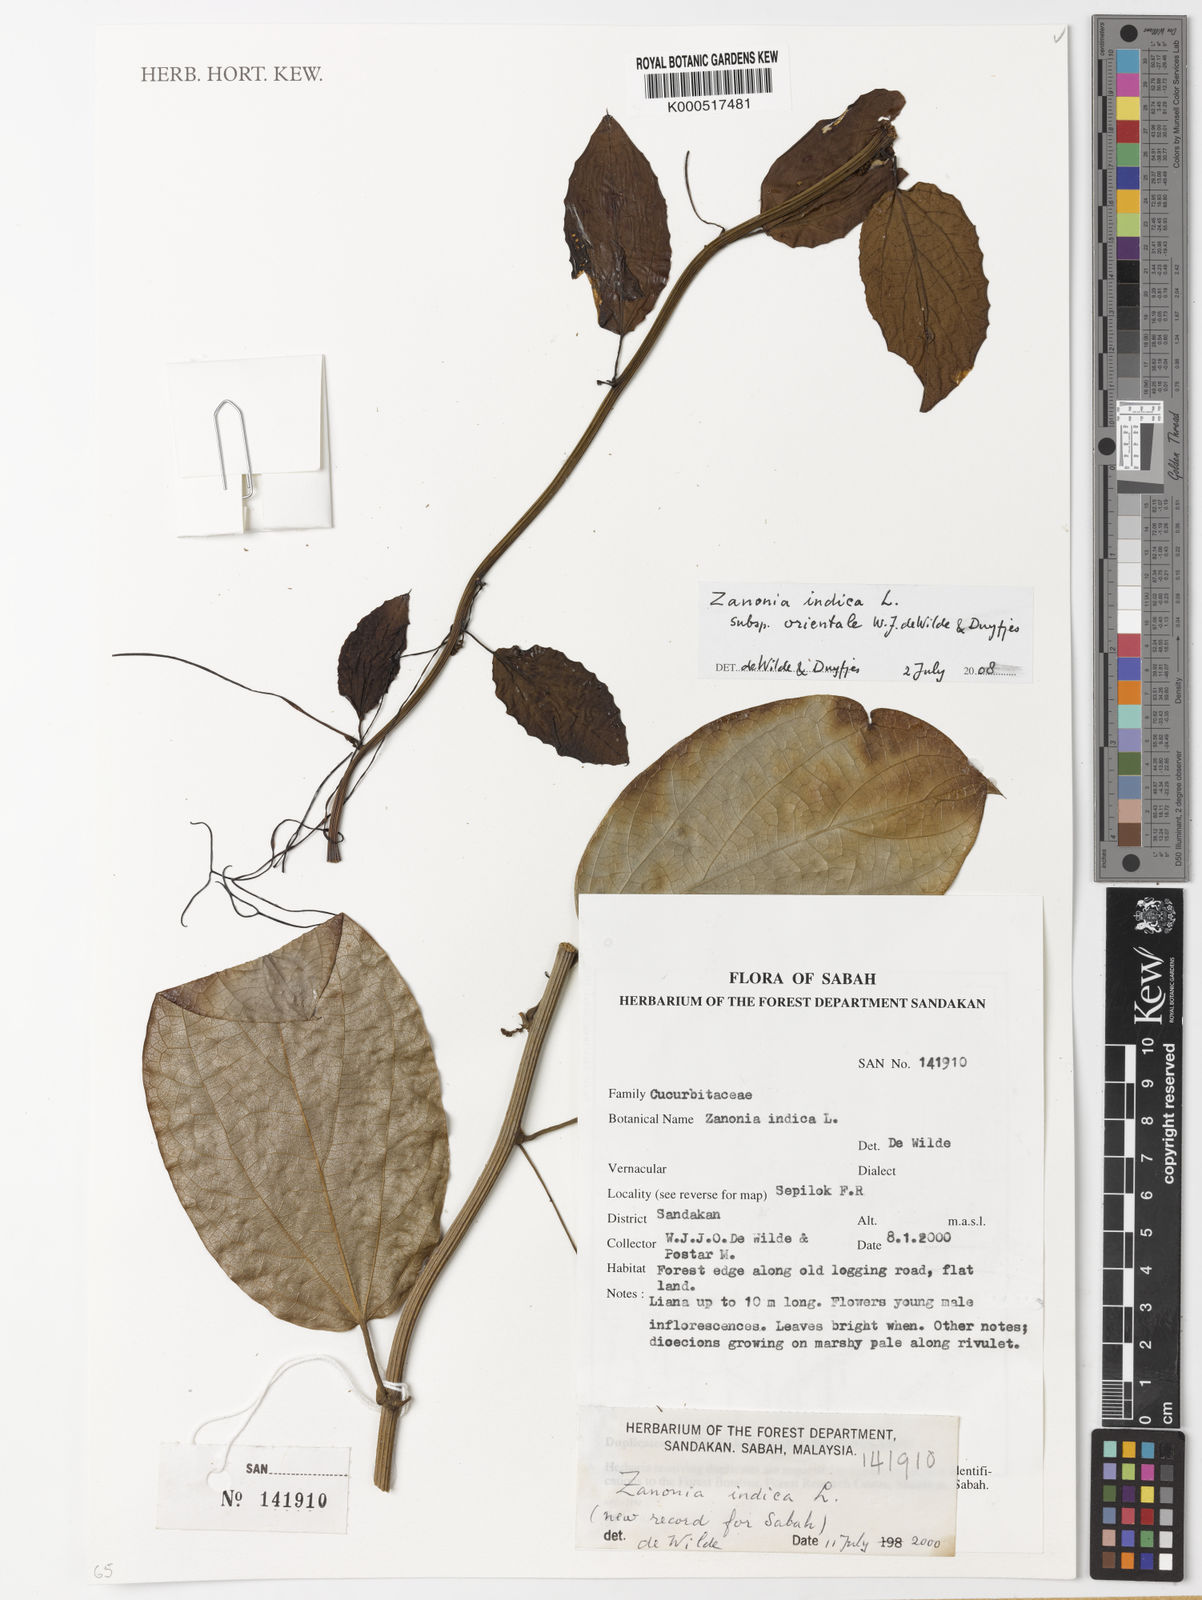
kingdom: Plantae
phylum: Tracheophyta
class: Magnoliopsida
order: Cucurbitales
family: Cucurbitaceae
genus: Zanonia
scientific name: Zanonia indica
